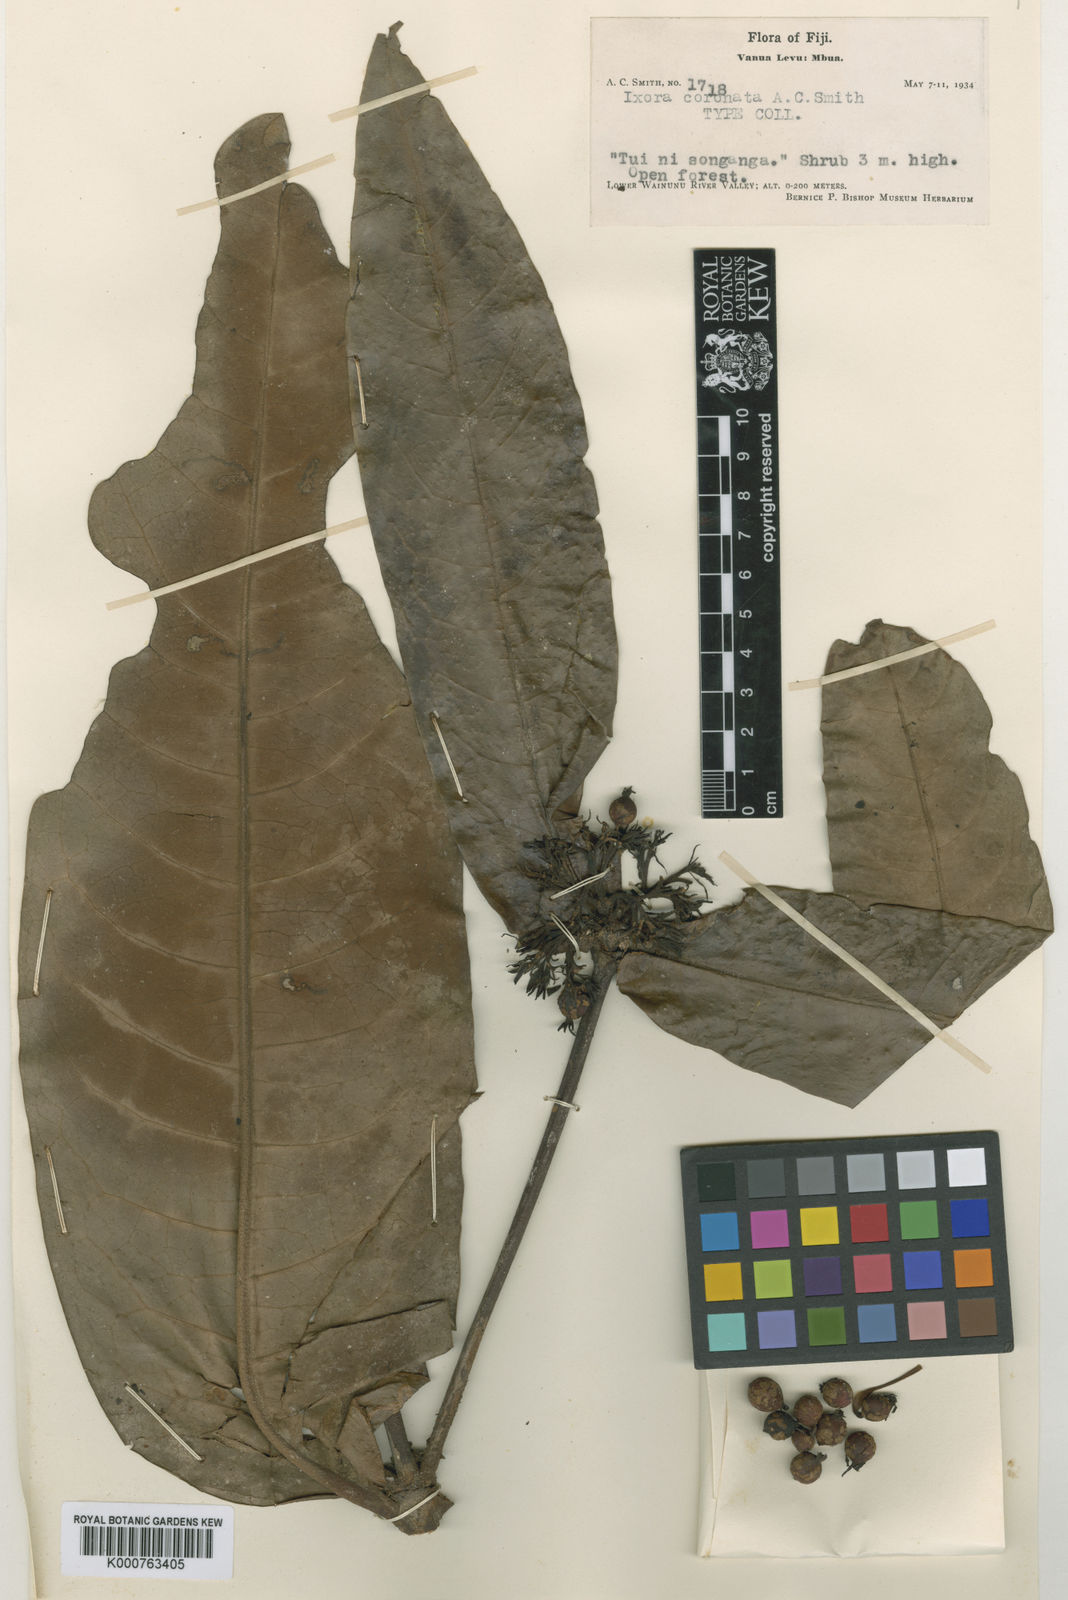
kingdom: Plantae
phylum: Tracheophyta
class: Magnoliopsida
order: Gentianales
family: Rubiaceae
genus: Ixora
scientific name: Ixora coronata
